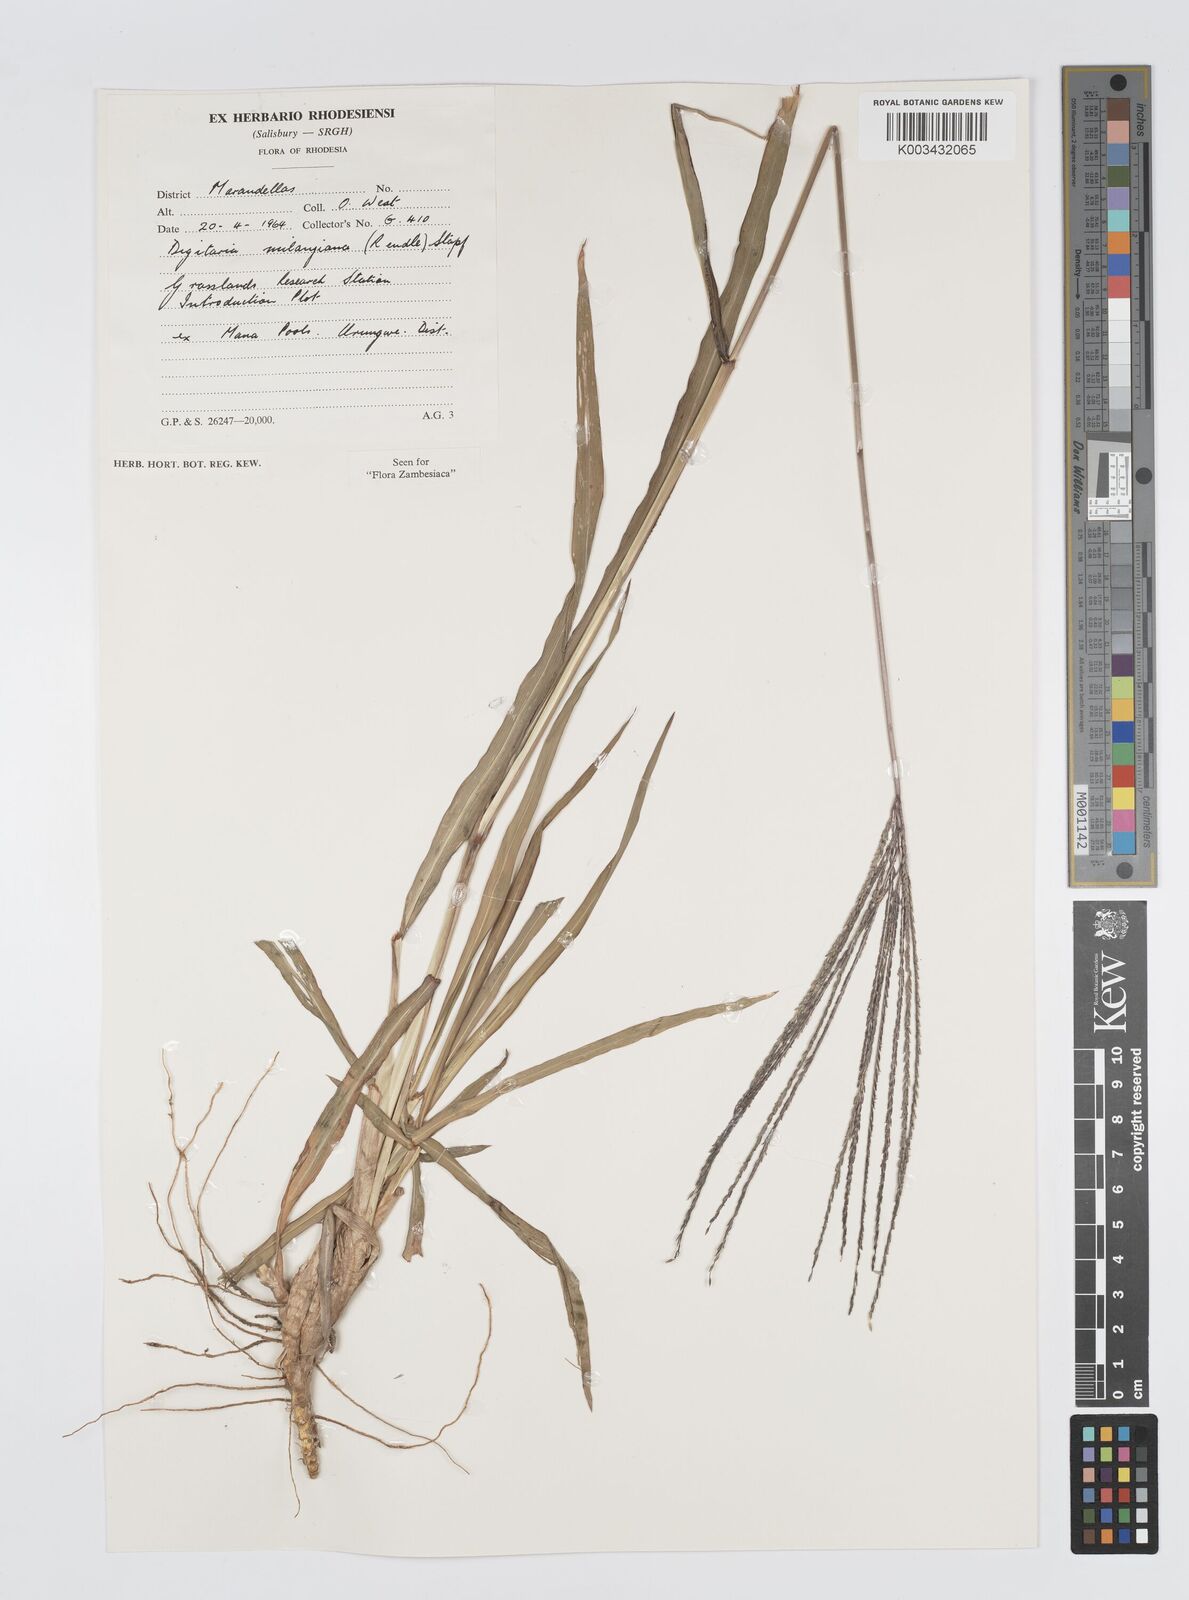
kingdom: Plantae
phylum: Tracheophyta
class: Liliopsida
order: Poales
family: Poaceae
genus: Digitaria
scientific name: Digitaria milanjiana
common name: Madagascar crabgrass
